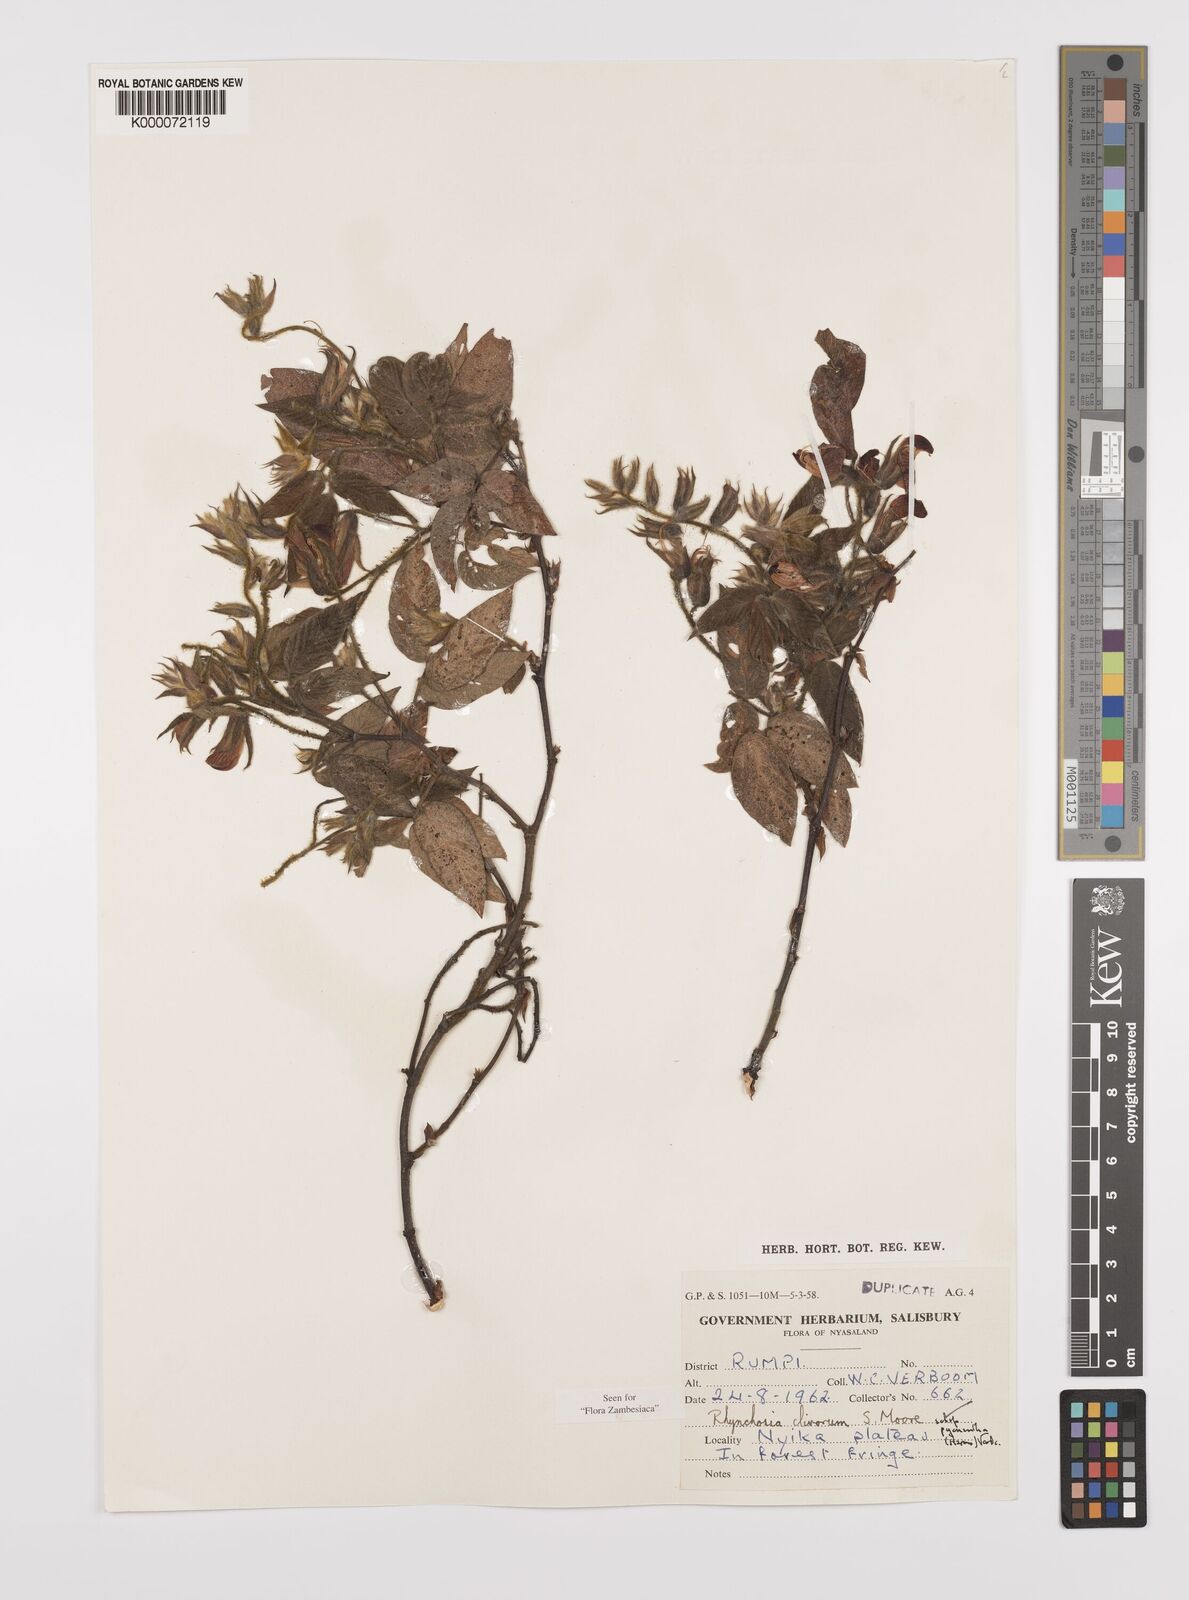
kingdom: Plantae
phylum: Tracheophyta
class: Magnoliopsida
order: Fabales
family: Fabaceae
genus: Rhynchosia
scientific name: Rhynchosia clivorum
